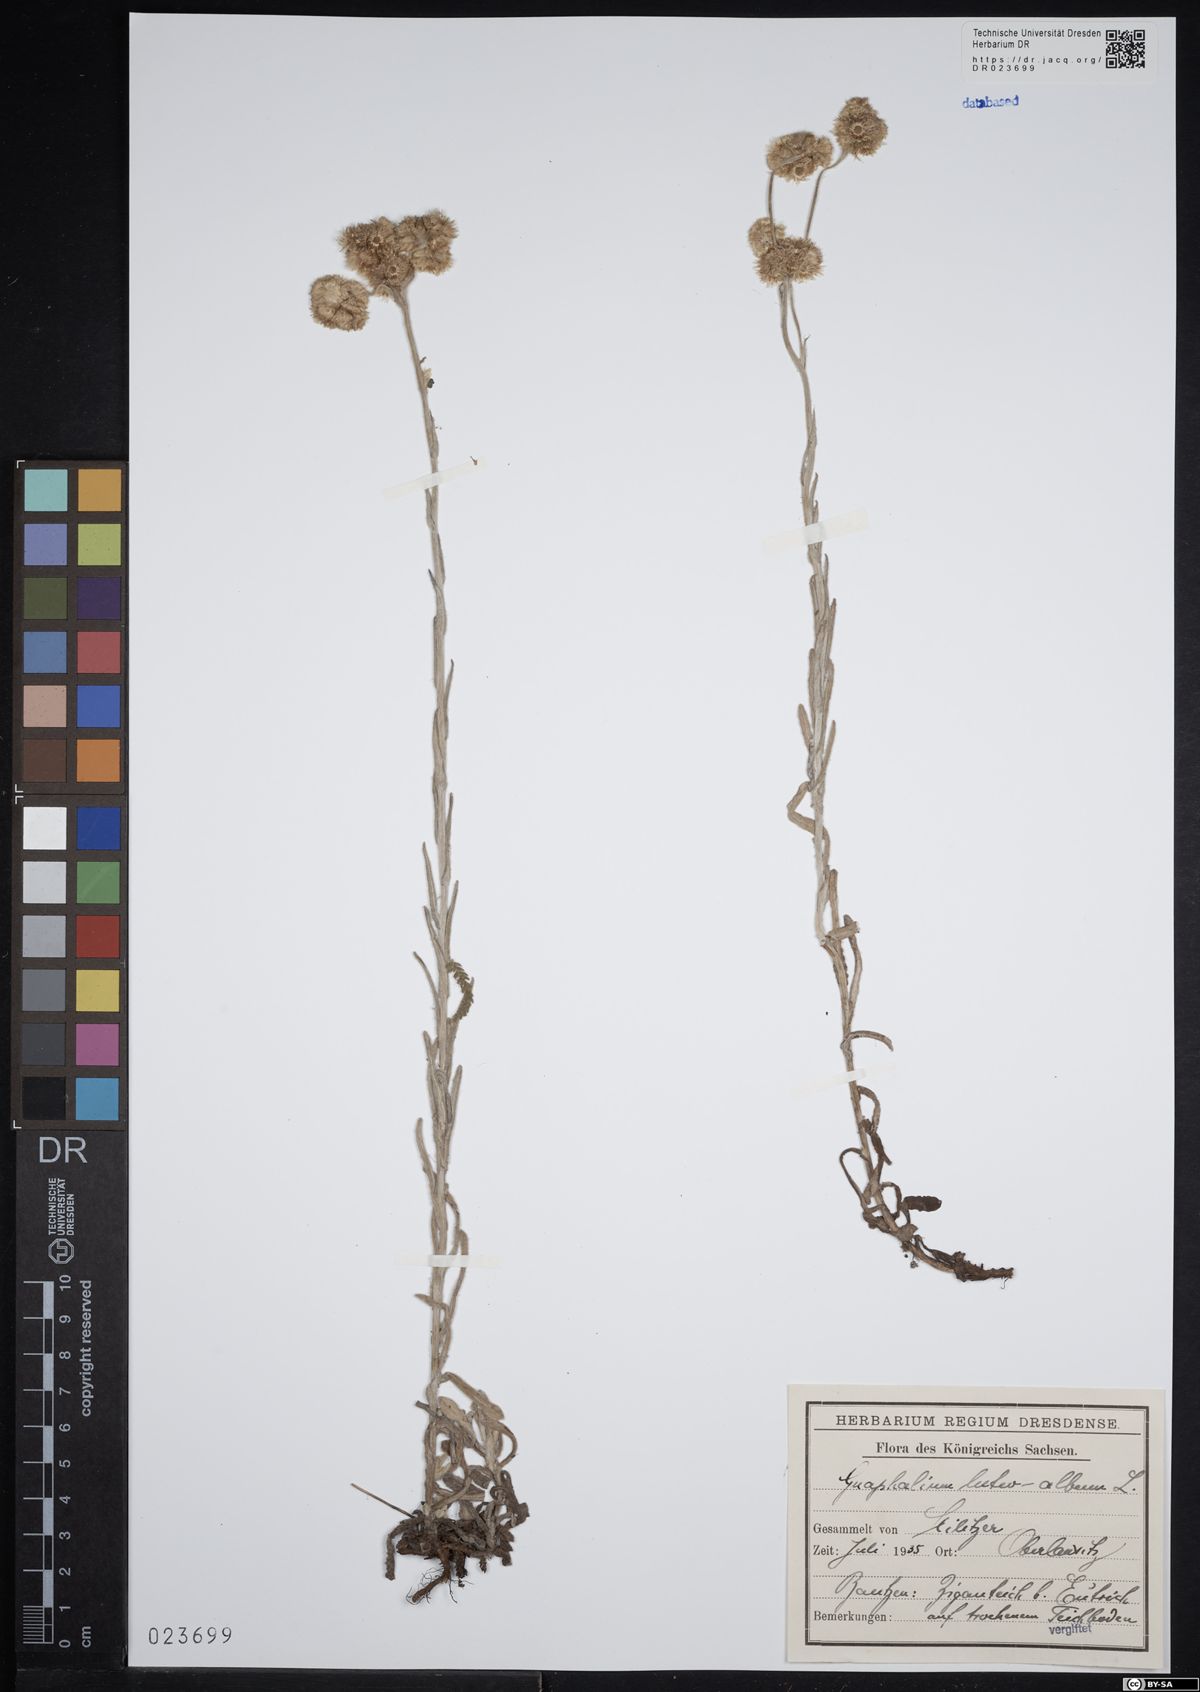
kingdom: Plantae
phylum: Tracheophyta
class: Magnoliopsida
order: Asterales
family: Asteraceae
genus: Helichrysum
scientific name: Helichrysum luteoalbum
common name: Daisy
